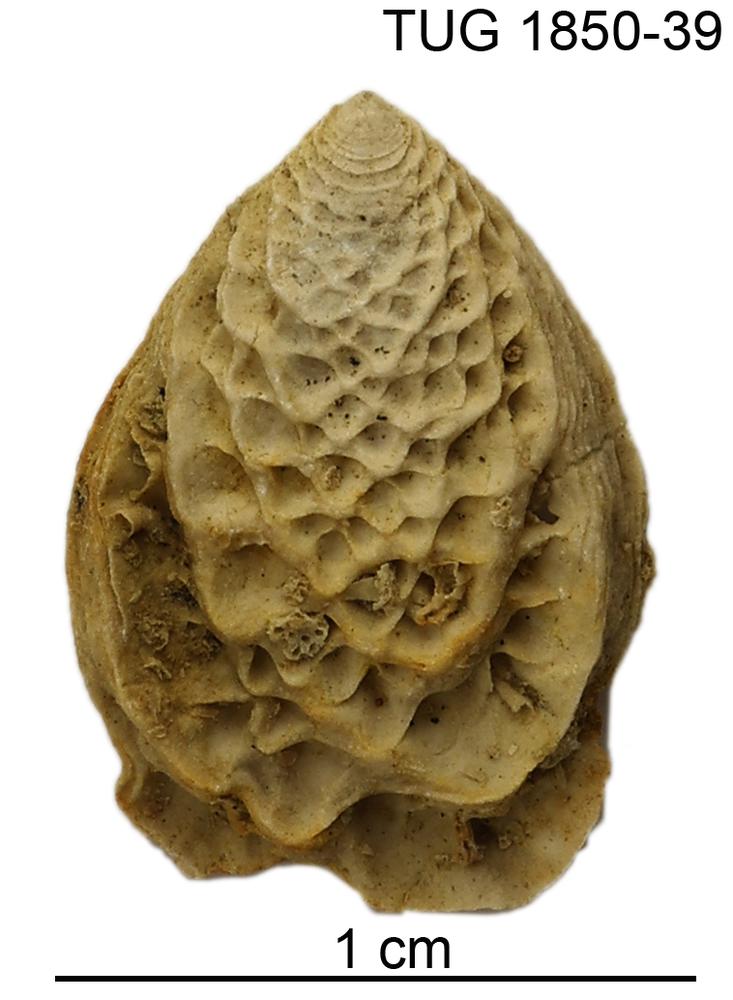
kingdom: Animalia
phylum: Mollusca
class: Monoplacophora
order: Tryblidiida
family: Tryblidiidae
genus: Tryblidium
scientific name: Tryblidium
